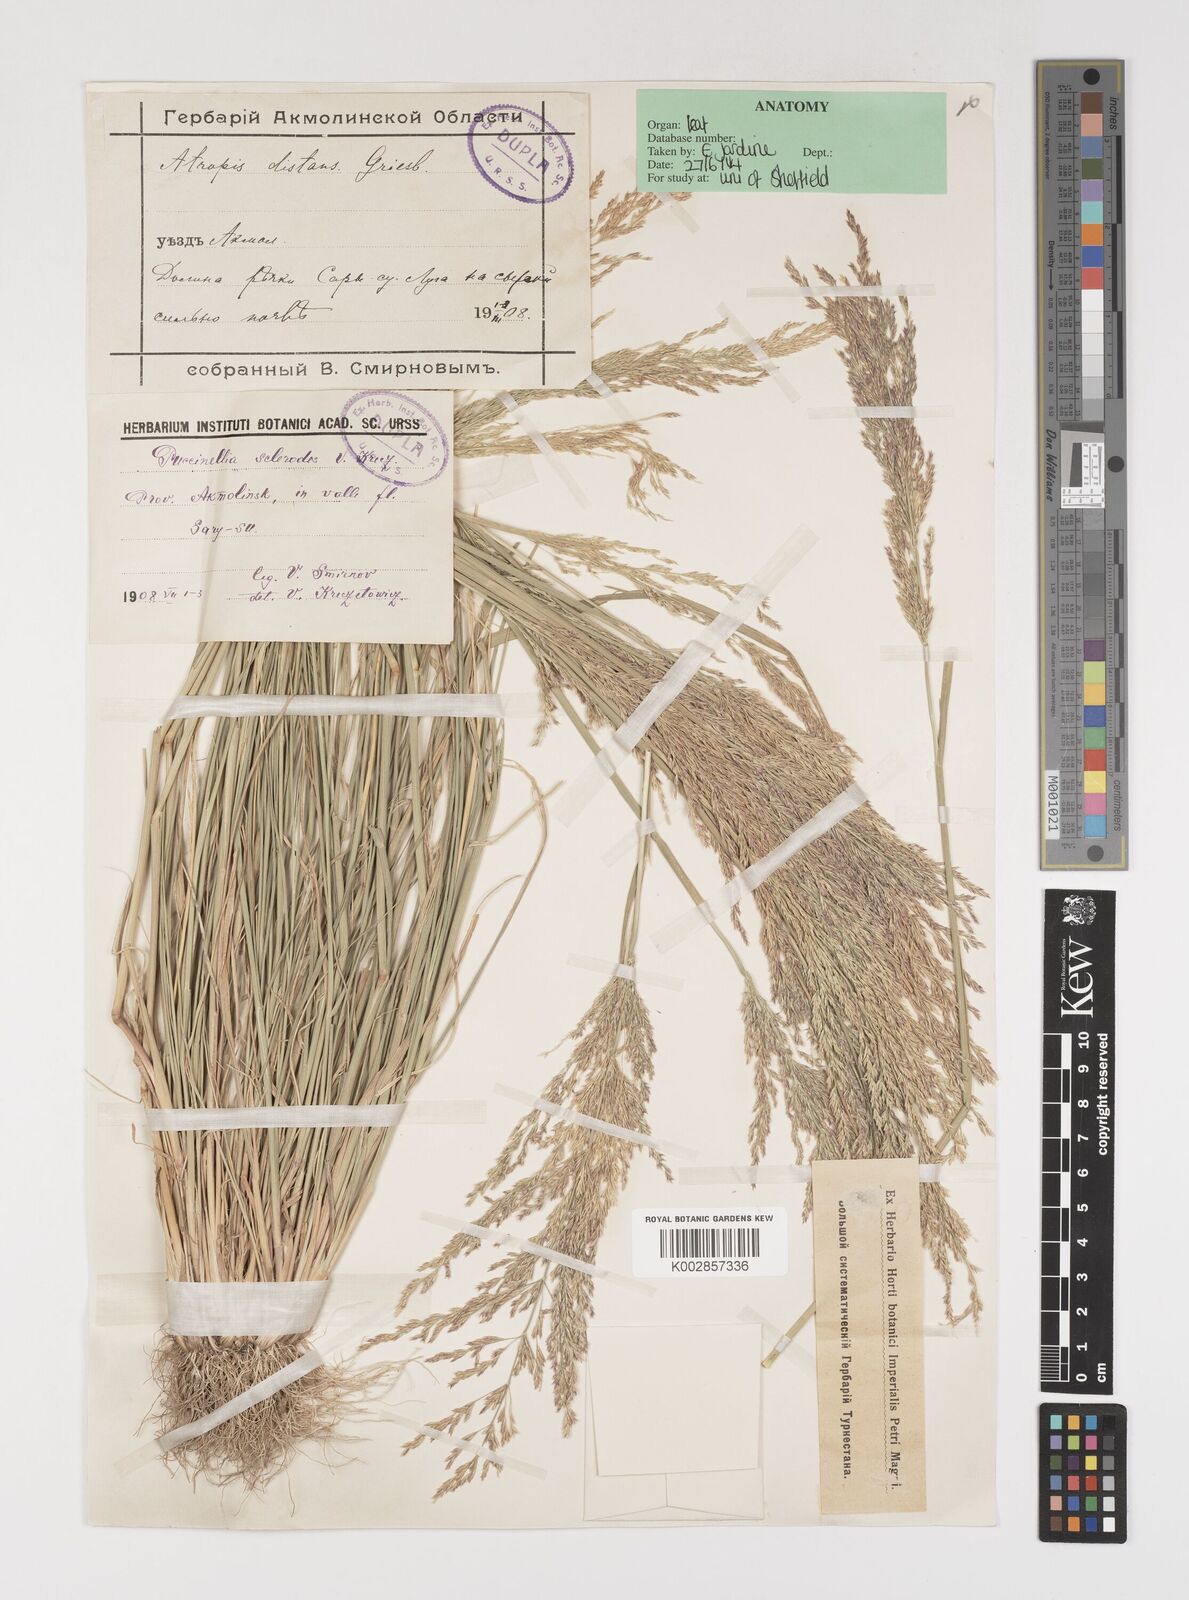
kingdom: Plantae
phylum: Tracheophyta
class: Liliopsida
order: Poales
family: Poaceae
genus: Puccinellia
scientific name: Puccinellia gigantea
